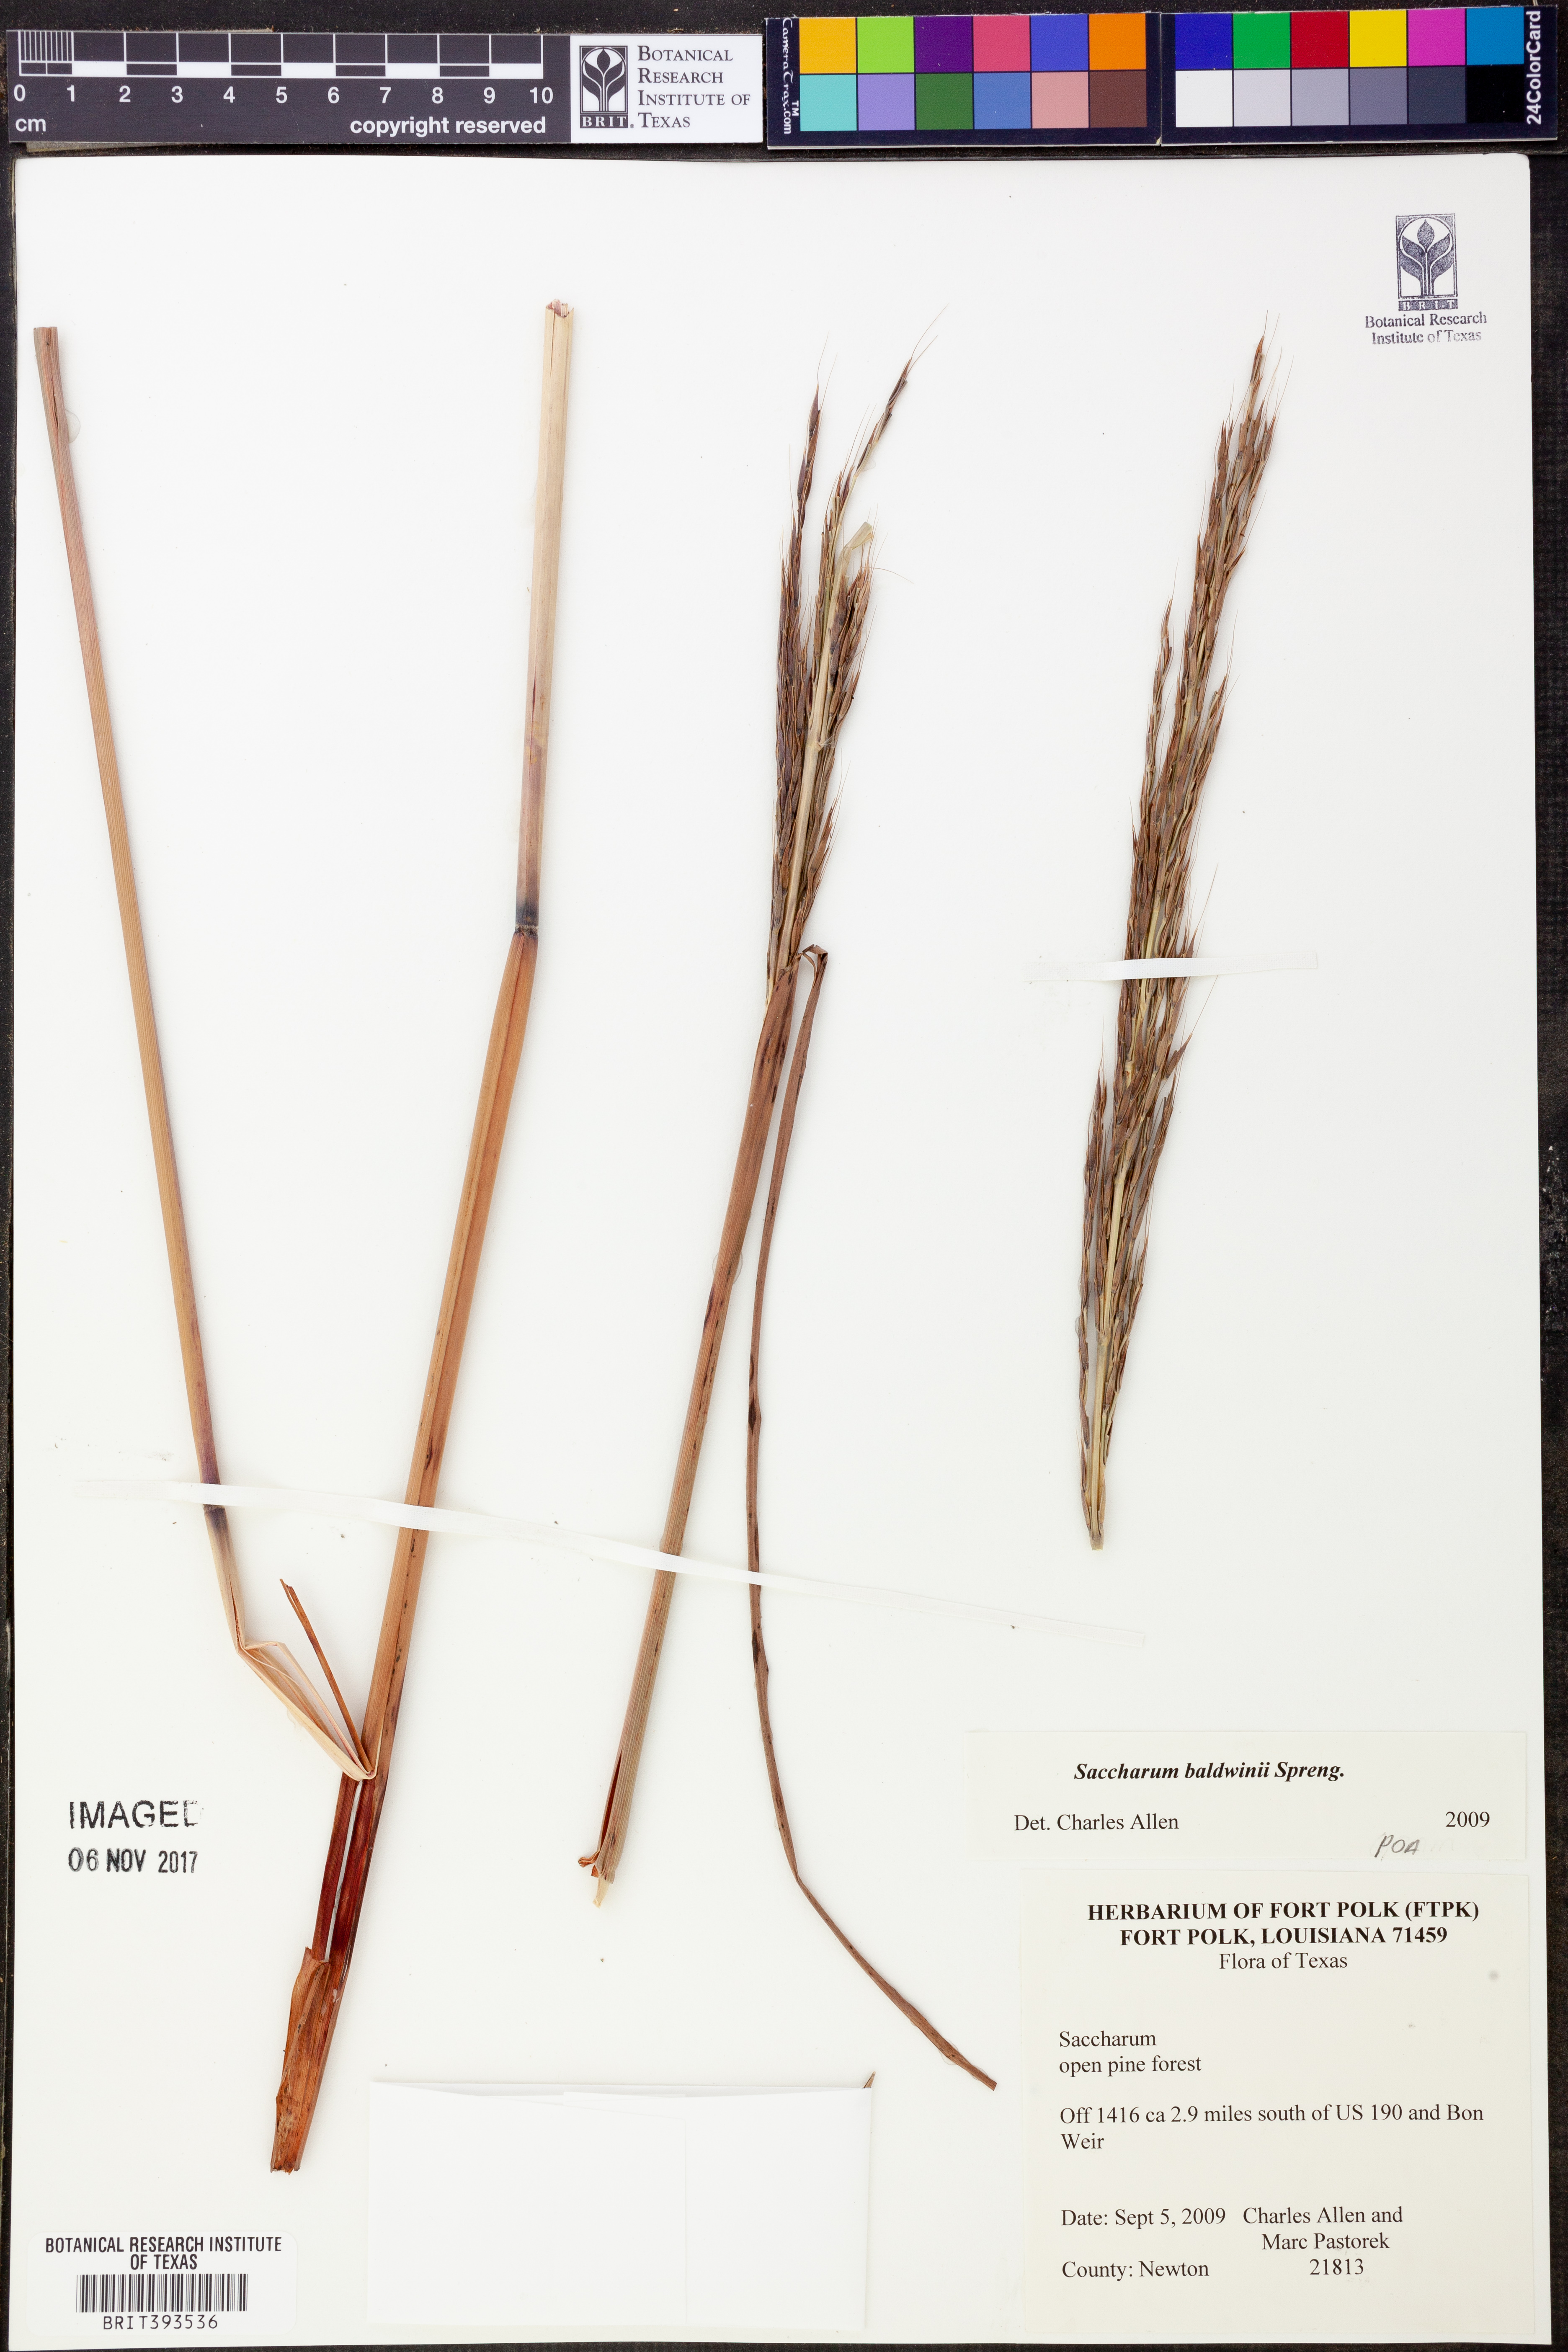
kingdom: Plantae
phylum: Tracheophyta
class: Liliopsida
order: Poales
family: Poaceae
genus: Erianthus
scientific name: Erianthus strictus
